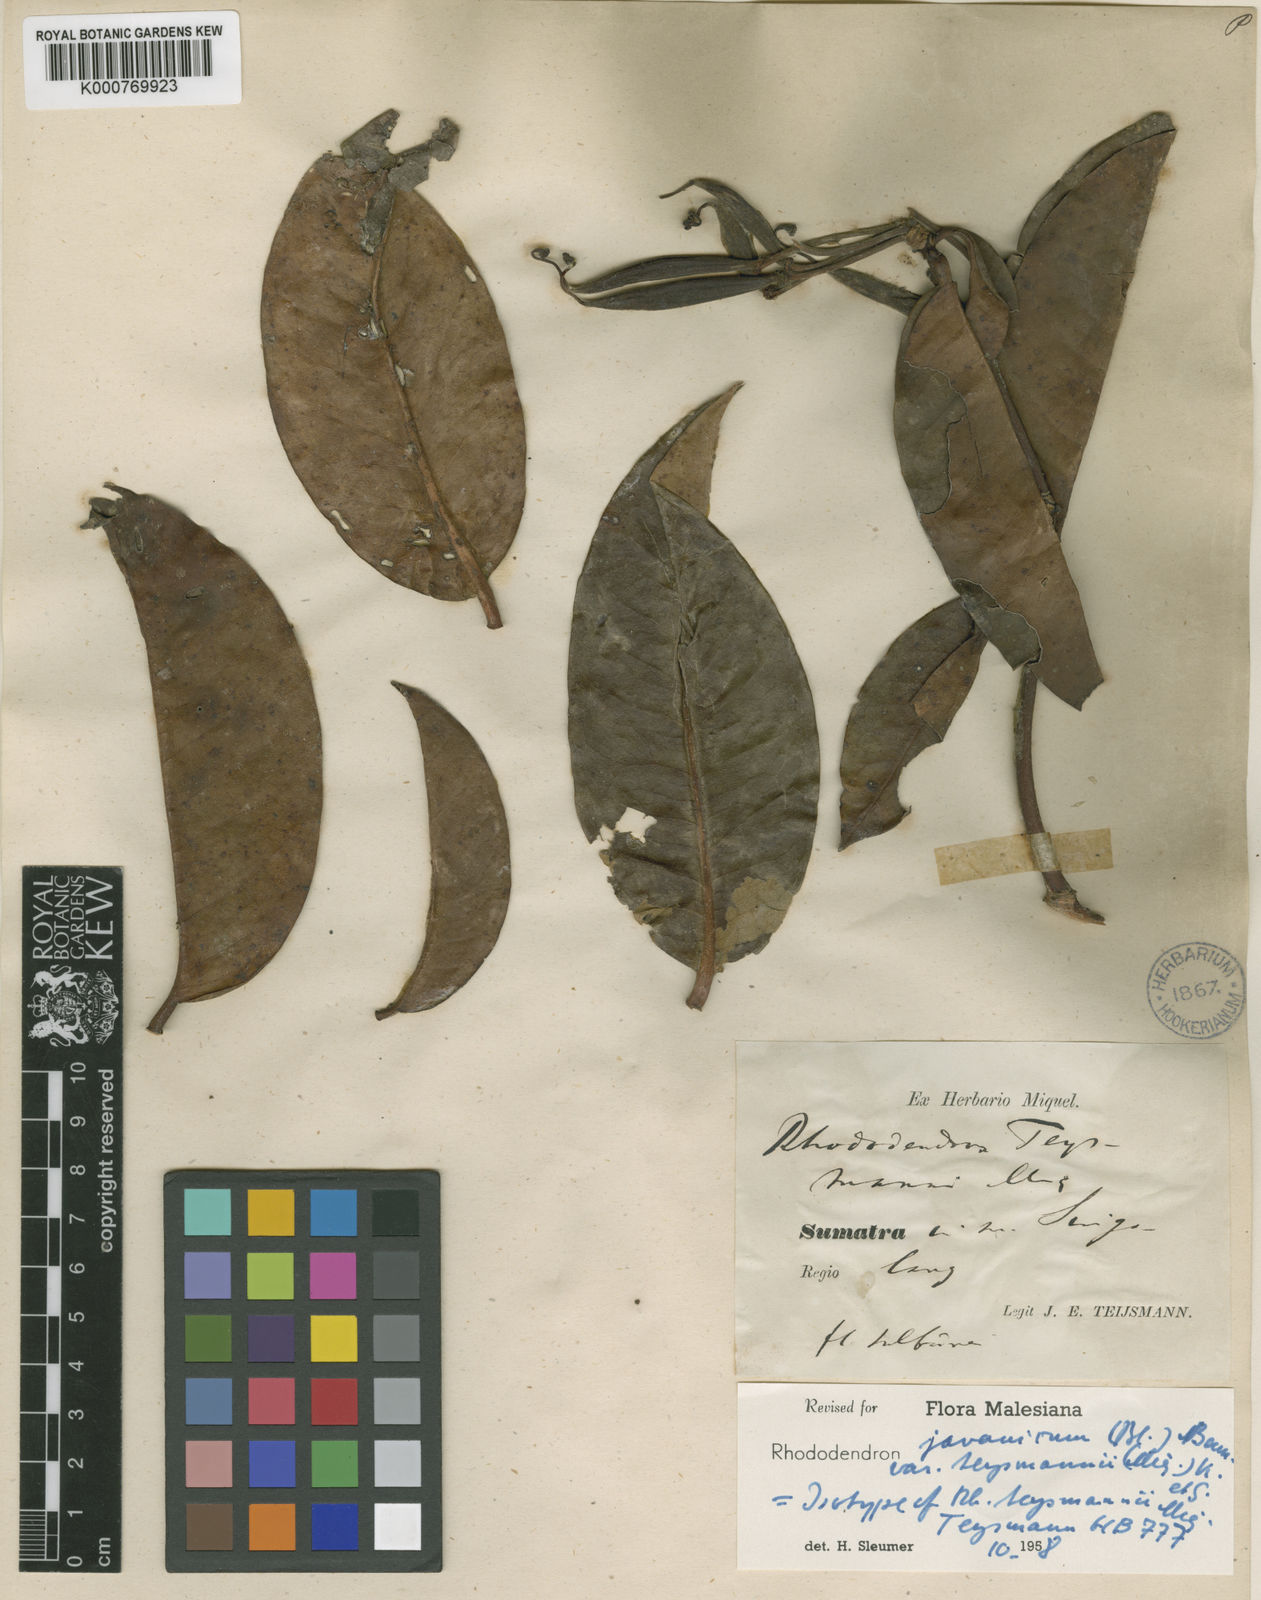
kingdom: Plantae
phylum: Tracheophyta
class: Magnoliopsida
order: Ericales
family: Ericaceae
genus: Rhododendron
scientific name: Rhododendron javanicum
